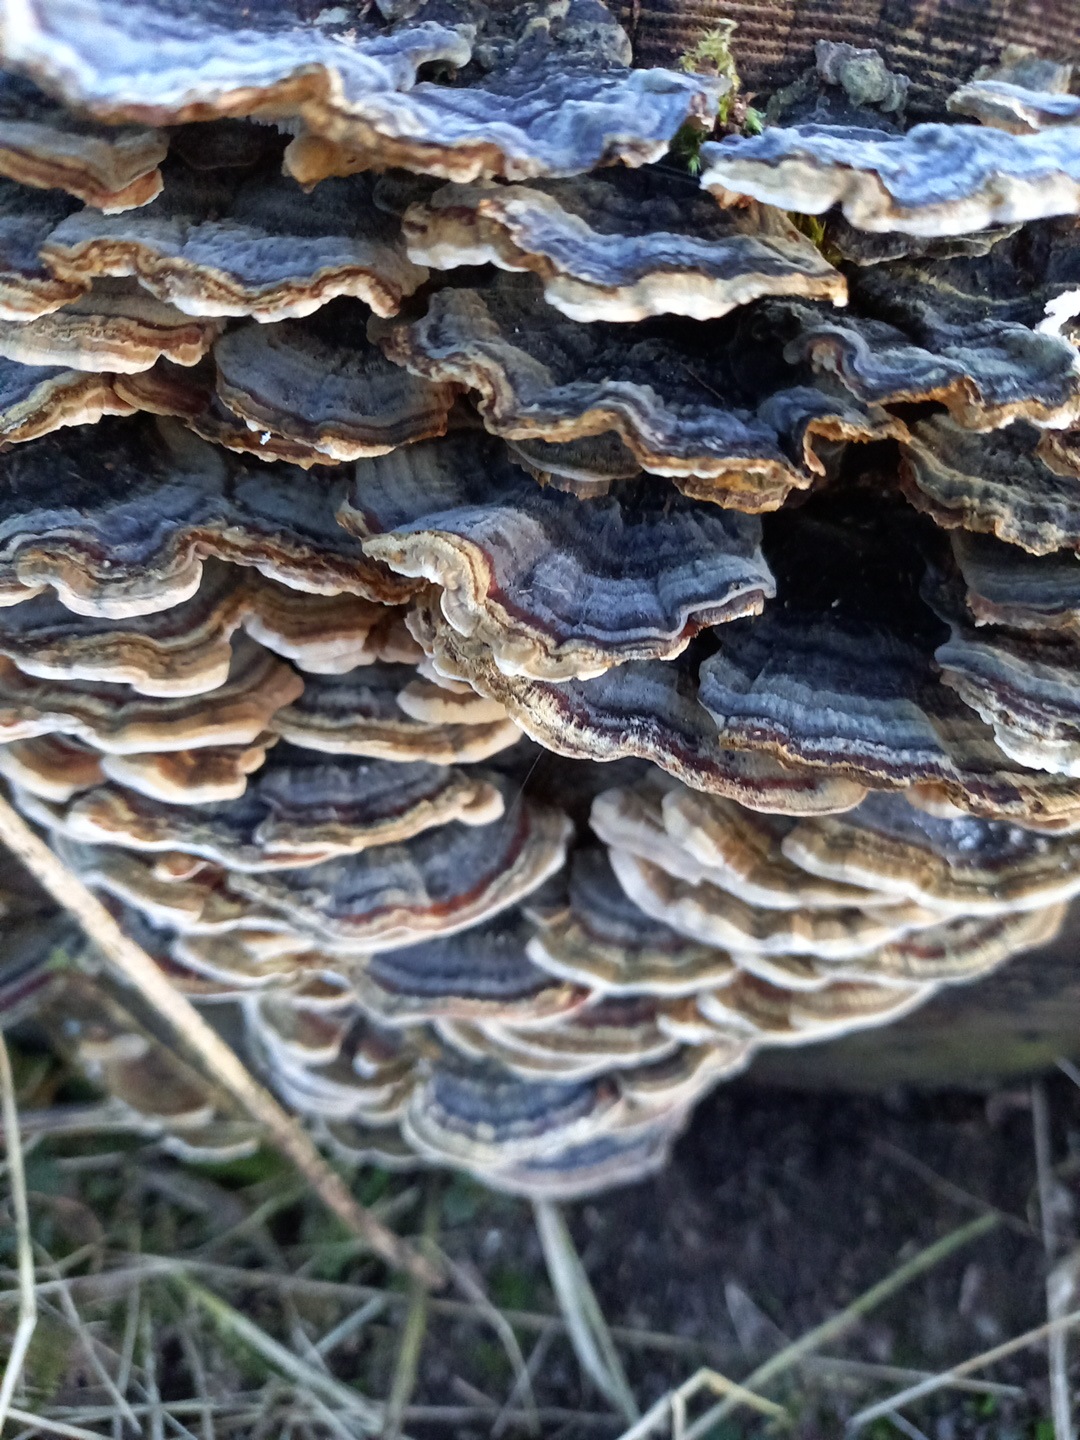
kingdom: Fungi
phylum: Basidiomycota
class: Agaricomycetes
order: Polyporales
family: Polyporaceae
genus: Trametes
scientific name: Trametes versicolor
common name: broget læderporesvamp
